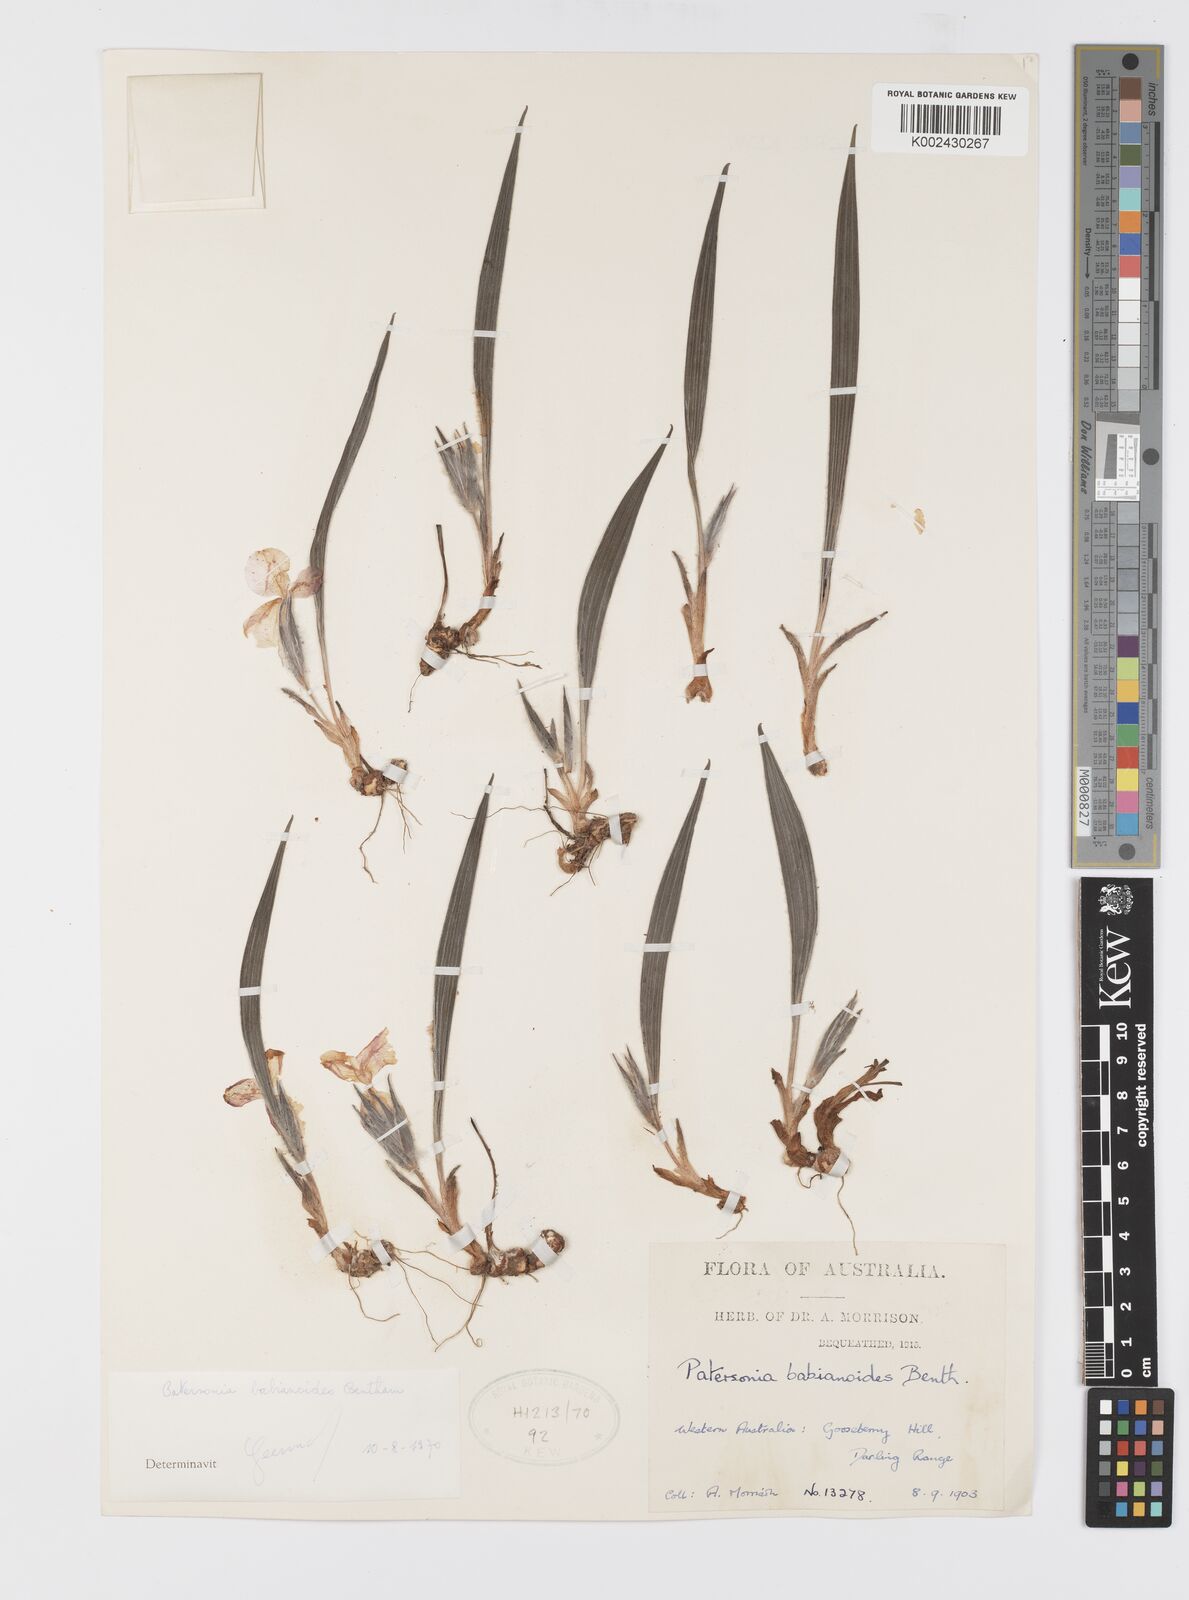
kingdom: Plantae
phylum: Tracheophyta
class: Liliopsida
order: Asparagales
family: Iridaceae
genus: Patersonia
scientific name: Patersonia babianoides
